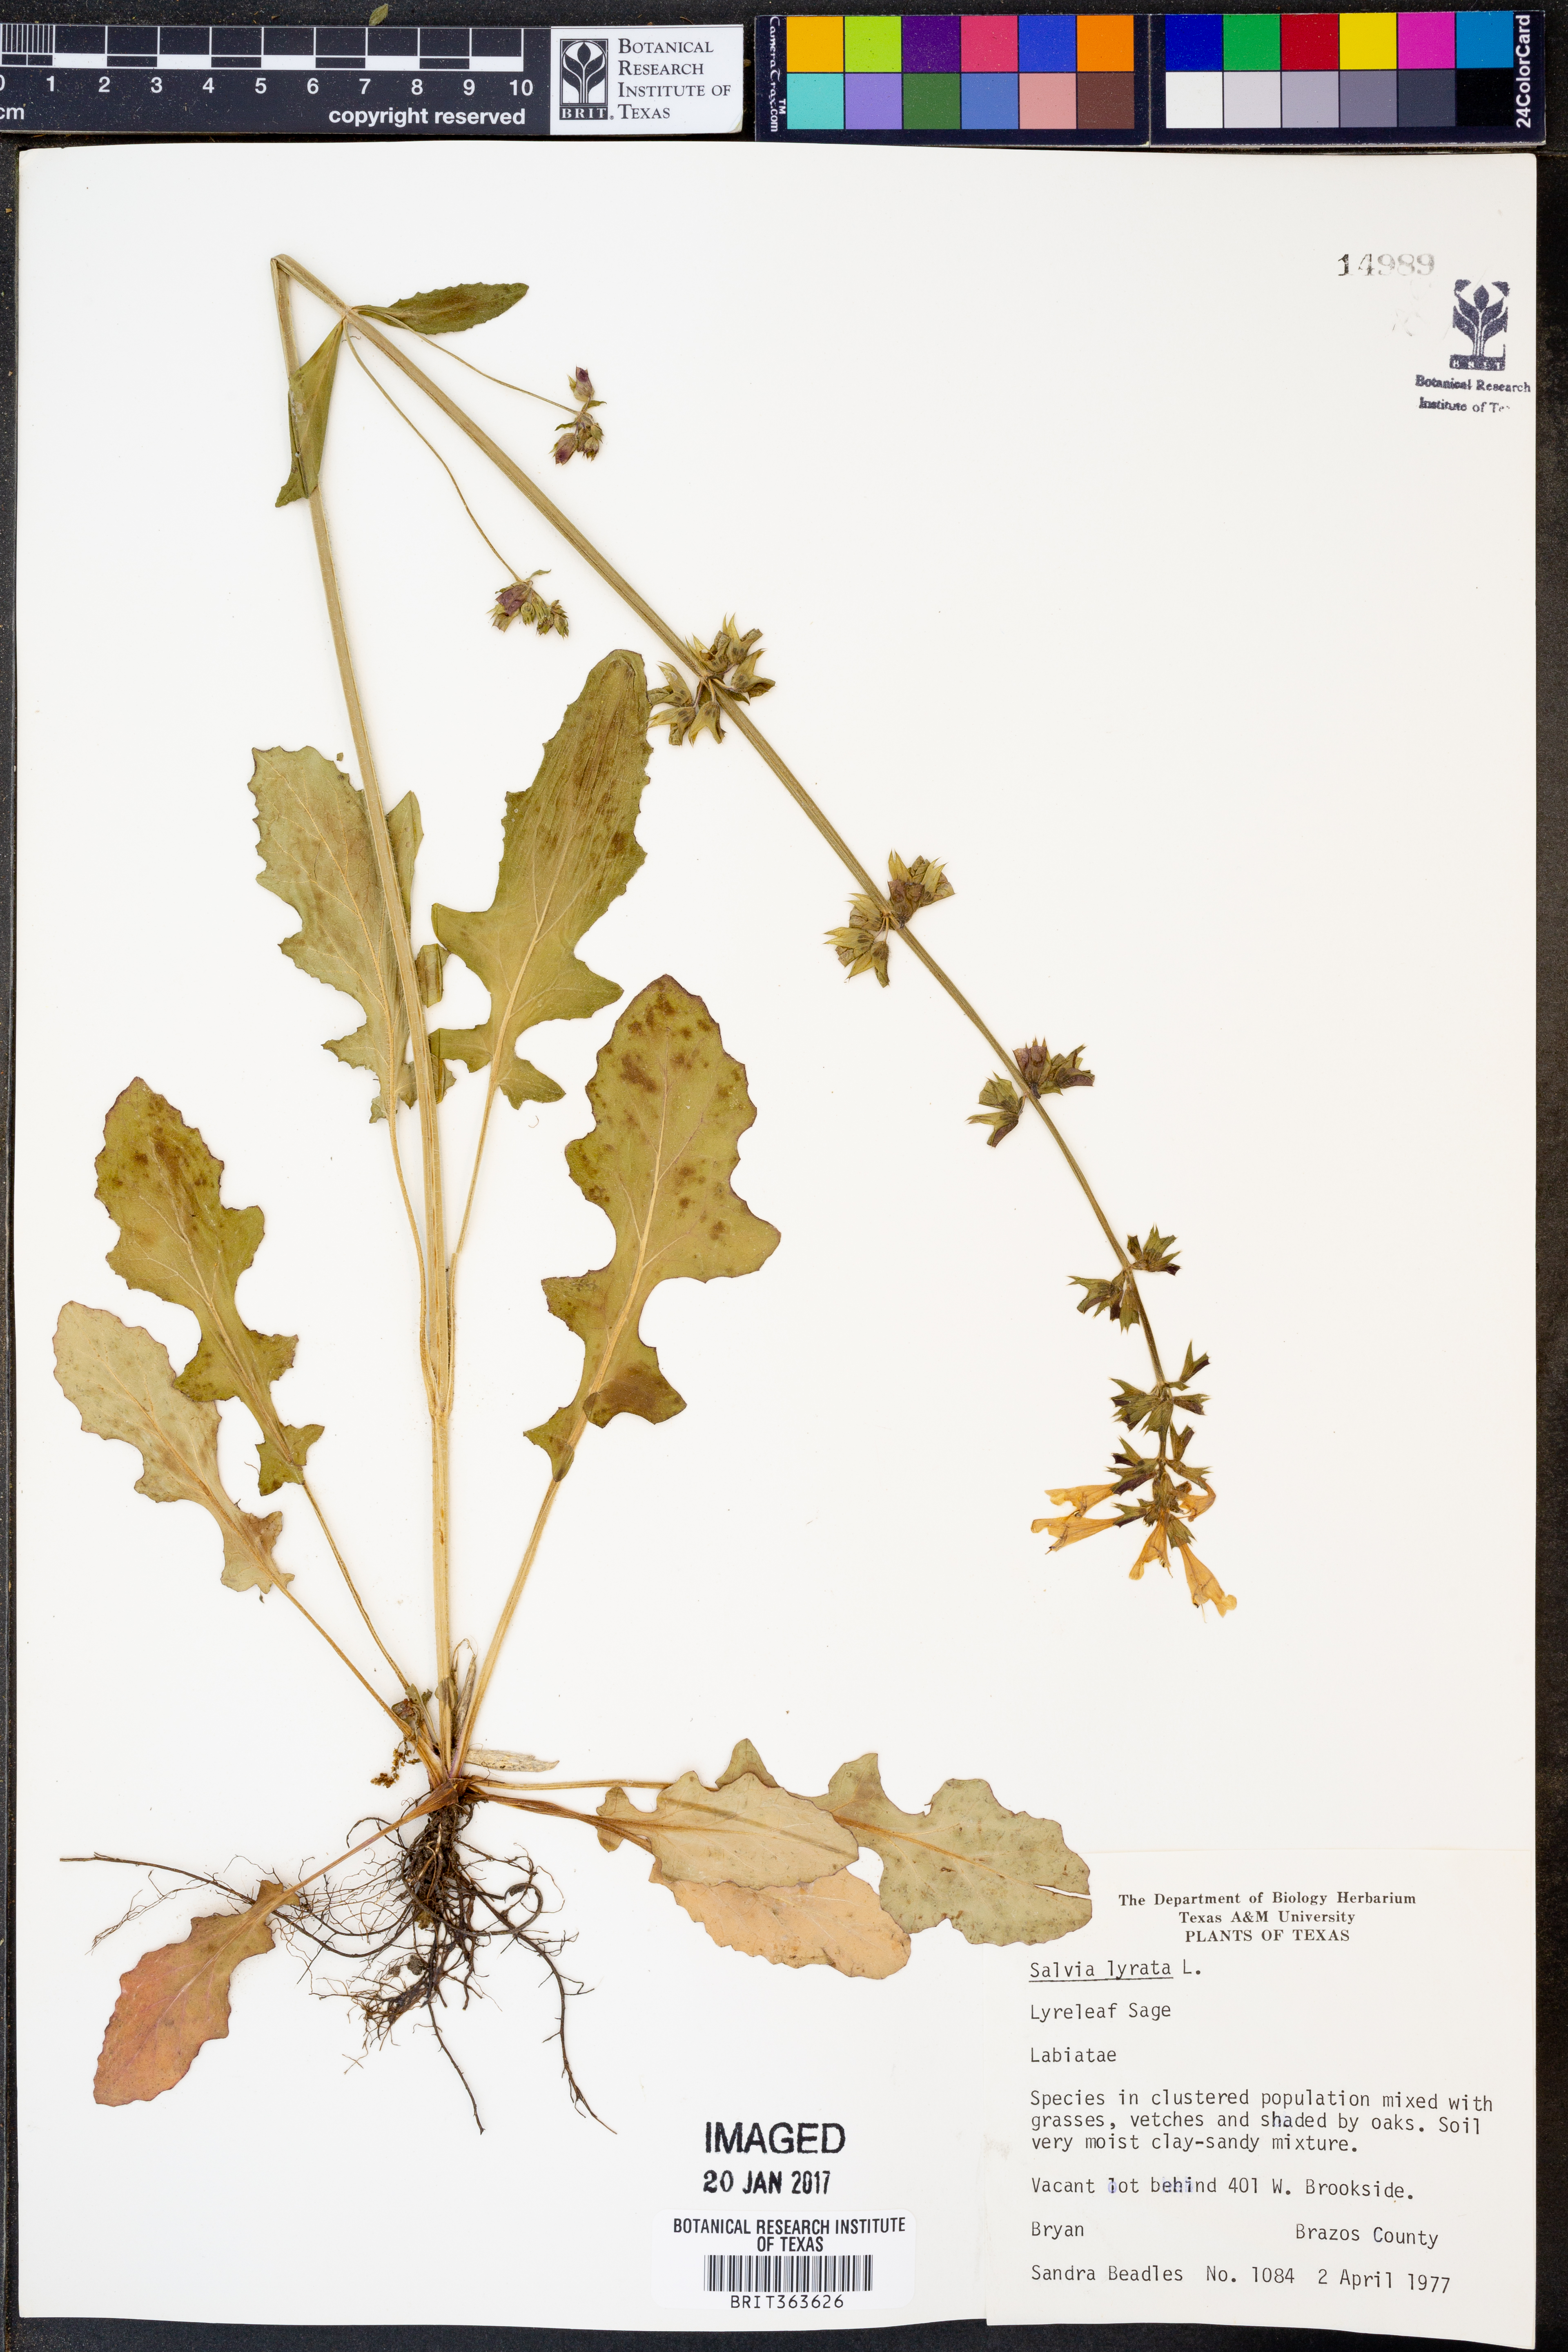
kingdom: Plantae
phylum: Tracheophyta
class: Magnoliopsida
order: Lamiales
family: Lamiaceae
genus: Salvia
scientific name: Salvia lyrata
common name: Cancerweed
